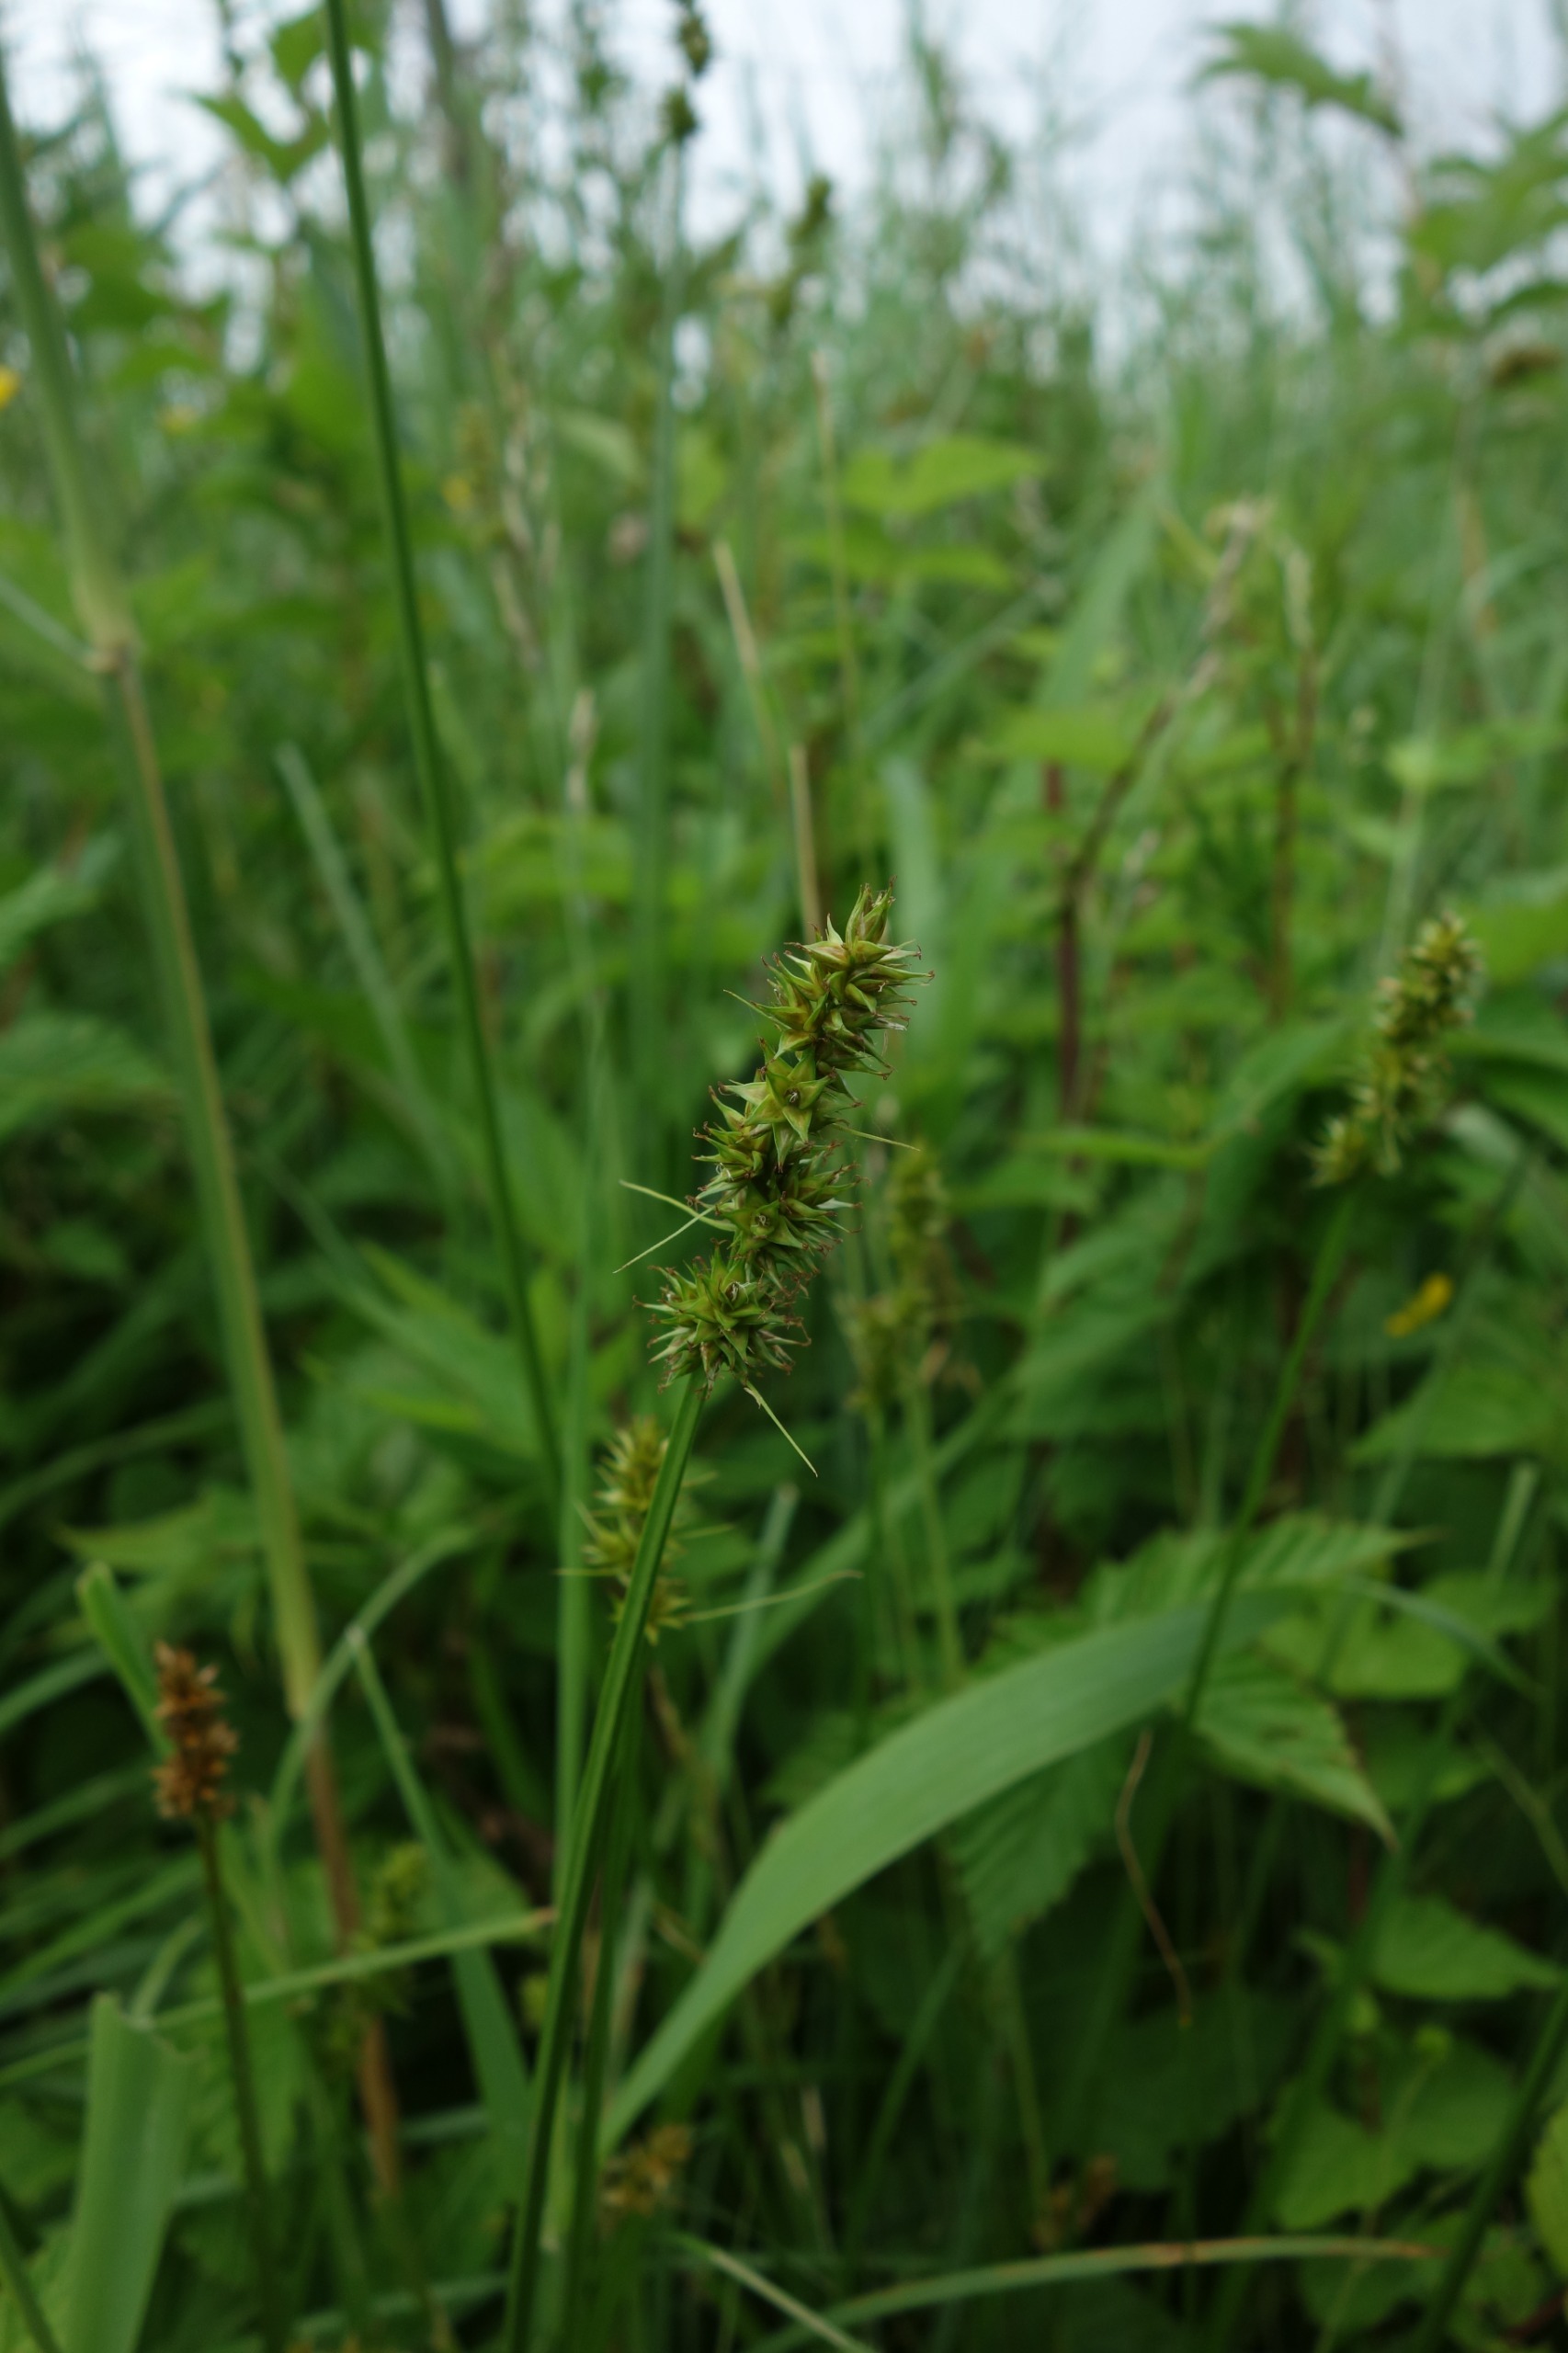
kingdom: Plantae
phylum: Tracheophyta
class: Liliopsida
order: Poales
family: Cyperaceae
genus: Carex
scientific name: Carex otrubae
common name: Sylt-star
